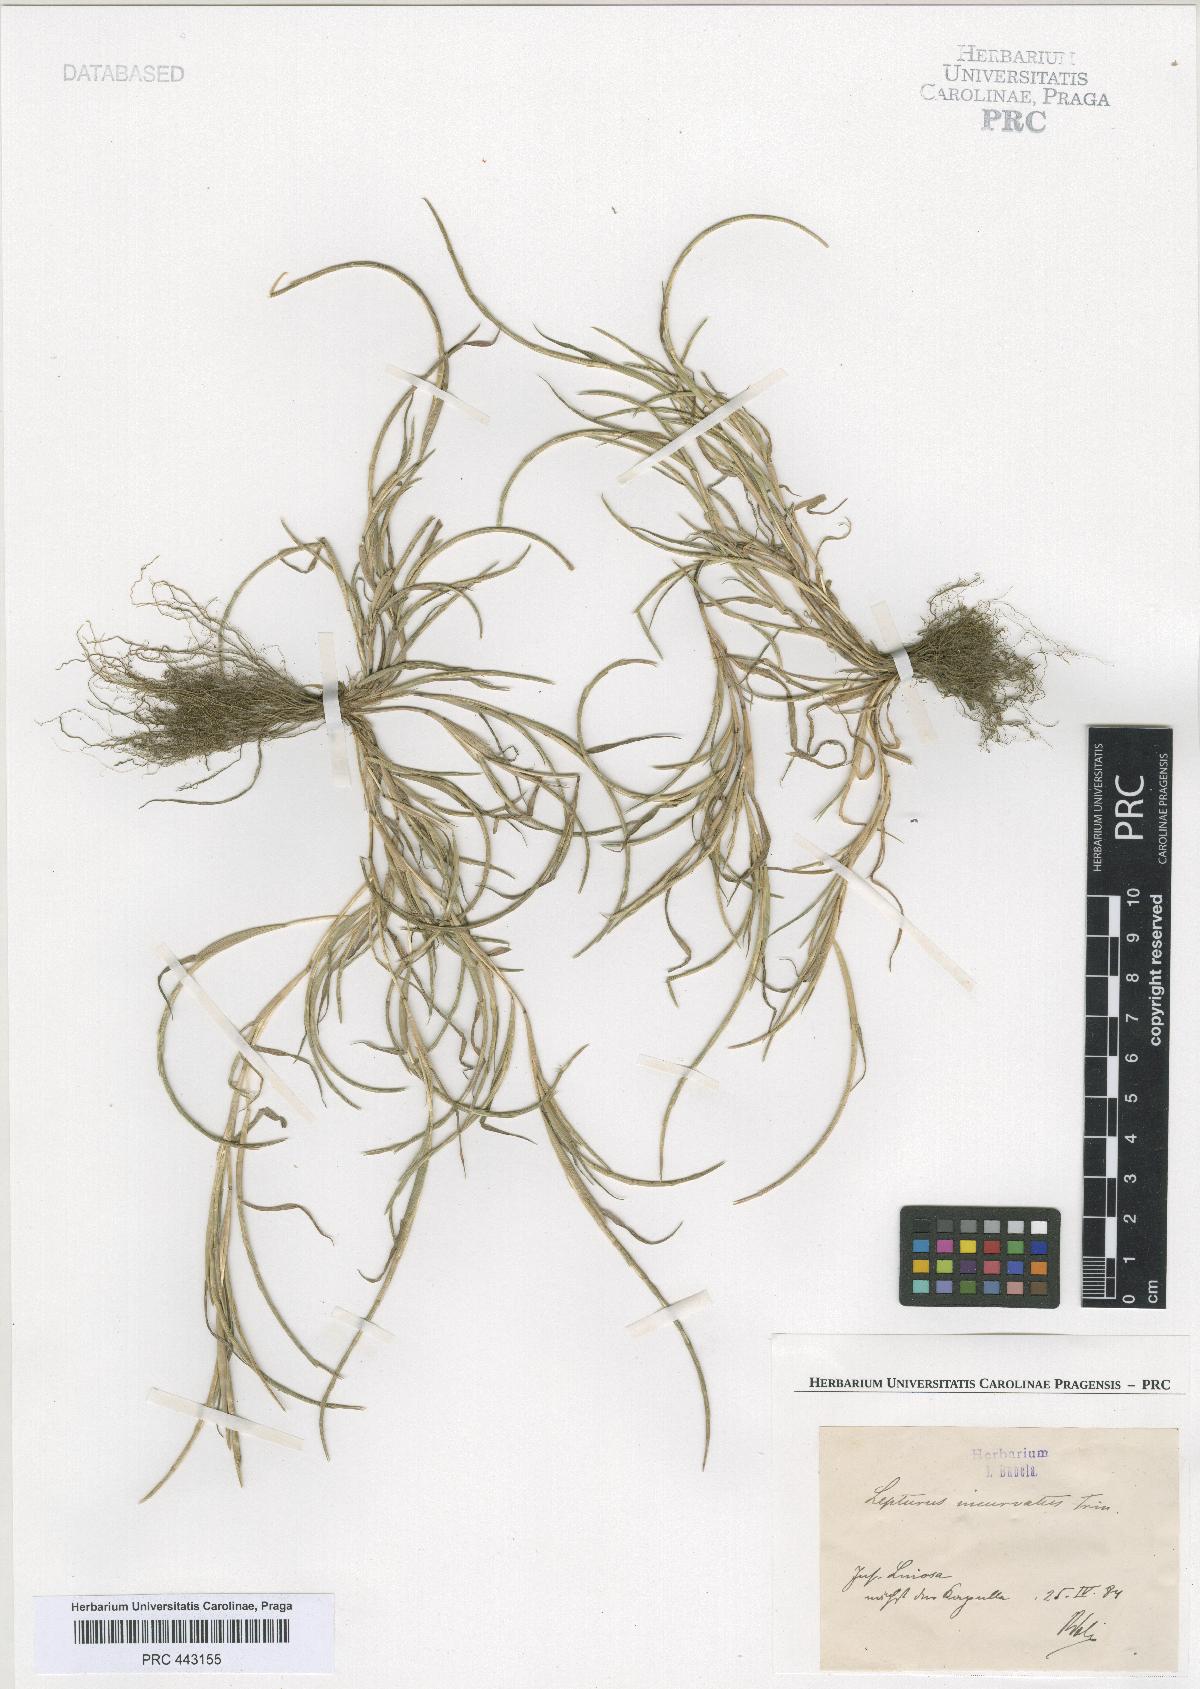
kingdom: Plantae
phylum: Tracheophyta
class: Liliopsida
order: Poales
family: Poaceae
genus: Parapholis
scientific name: Parapholis incurva
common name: Curved sicklegrass
